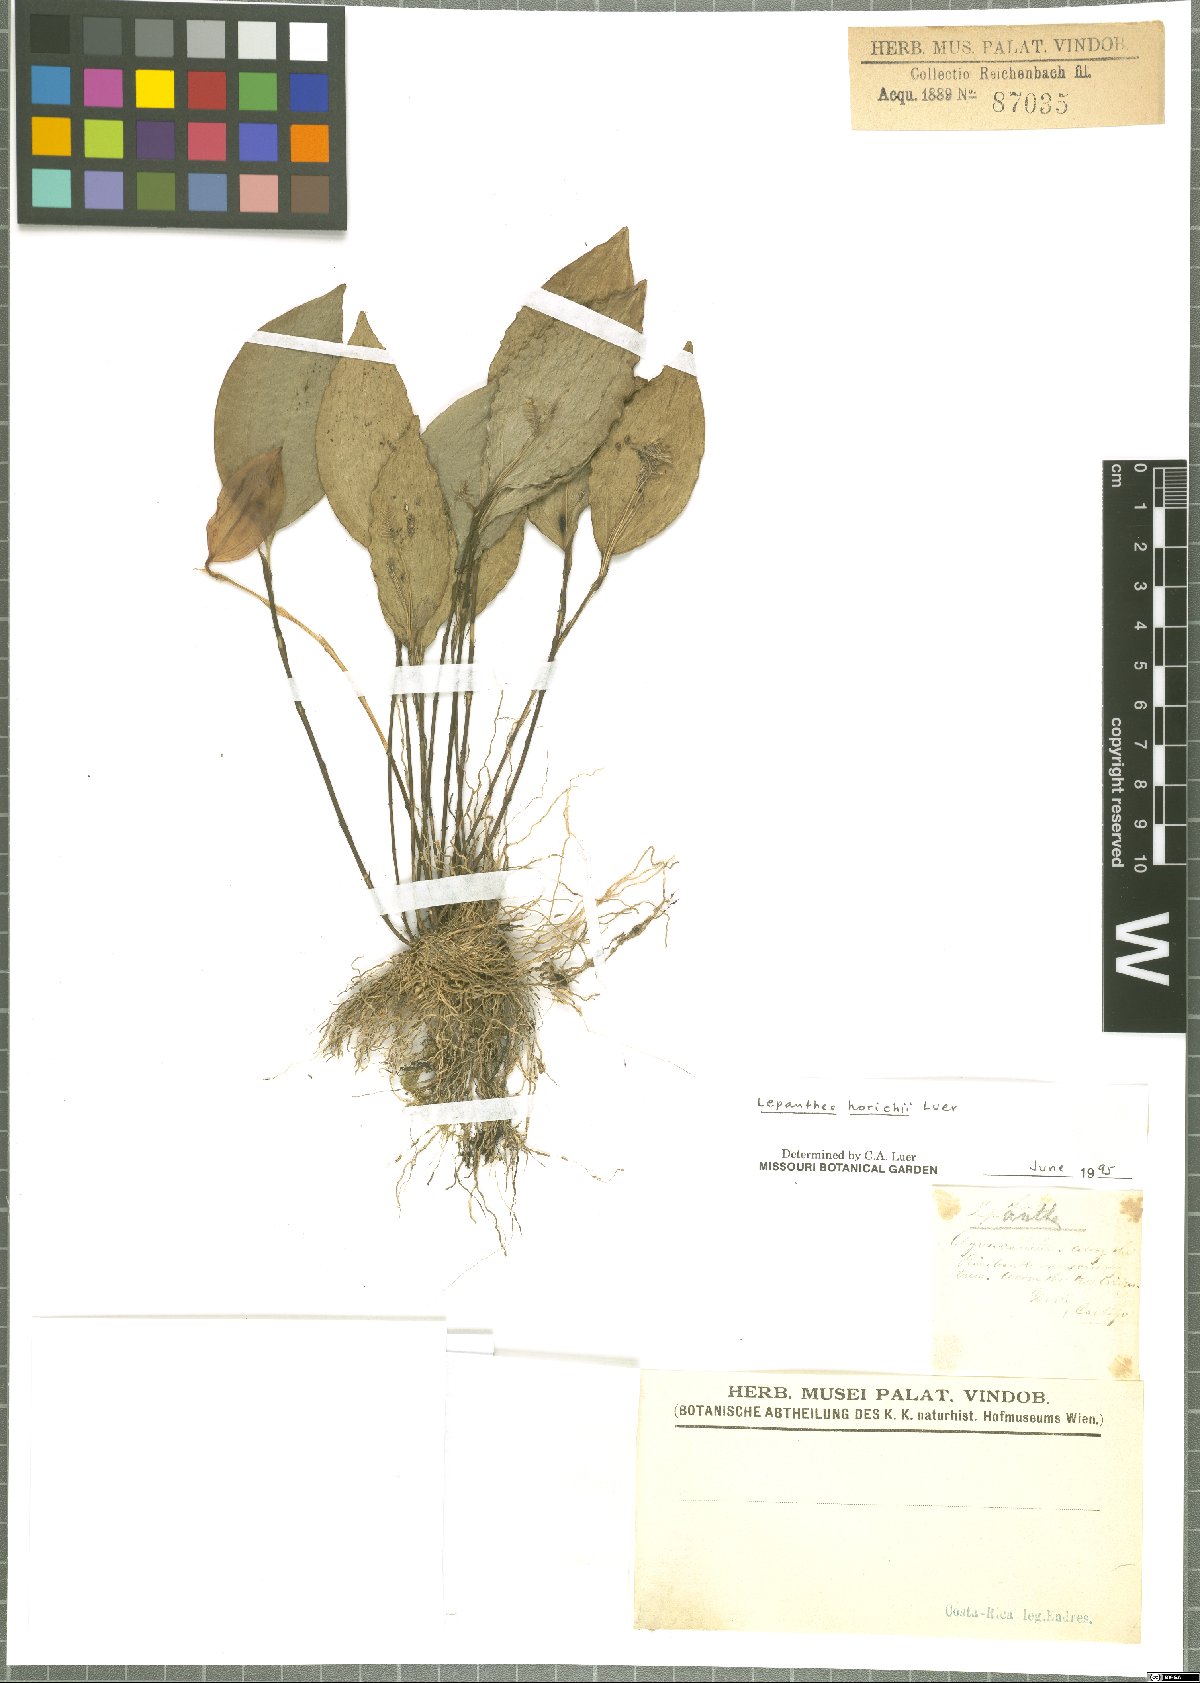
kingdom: Plantae
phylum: Tracheophyta
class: Liliopsida
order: Asparagales
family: Orchidaceae
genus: Lepanthes
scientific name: Lepanthes horichii
